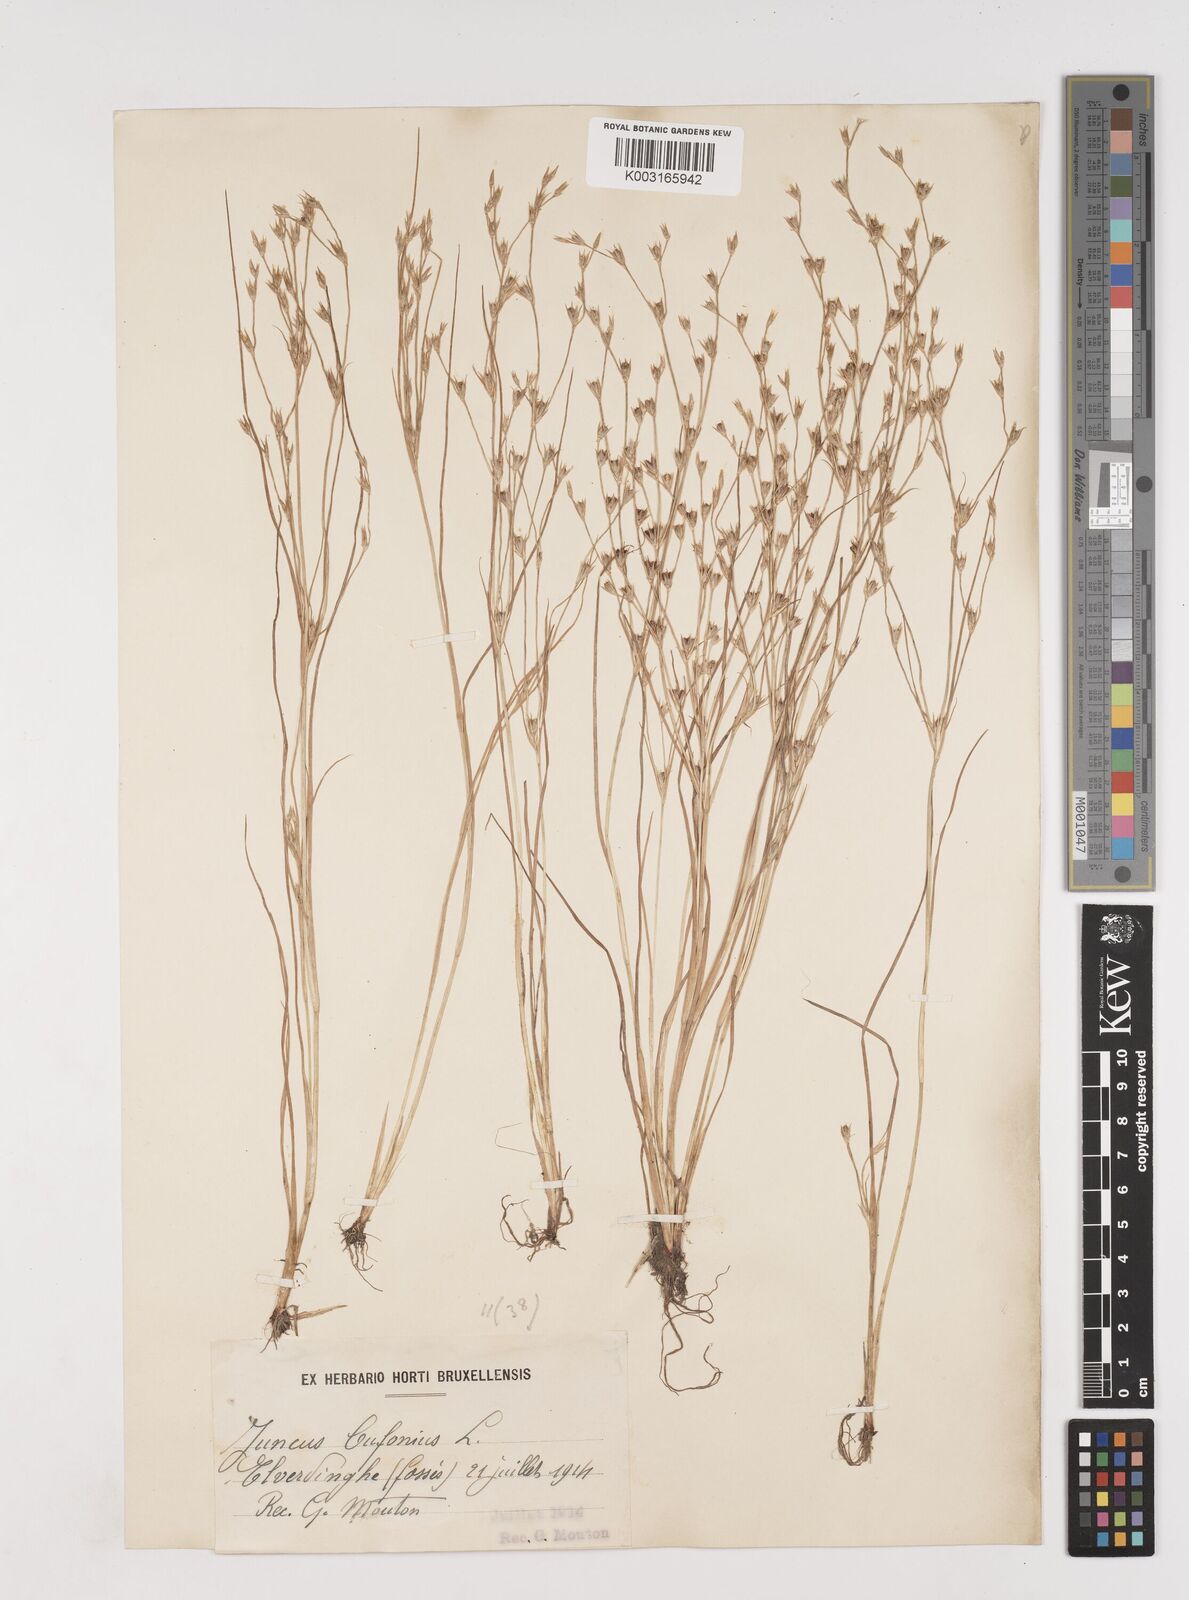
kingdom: Plantae
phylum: Tracheophyta
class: Liliopsida
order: Poales
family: Juncaceae
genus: Juncus
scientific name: Juncus bufonius
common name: Toad rush
